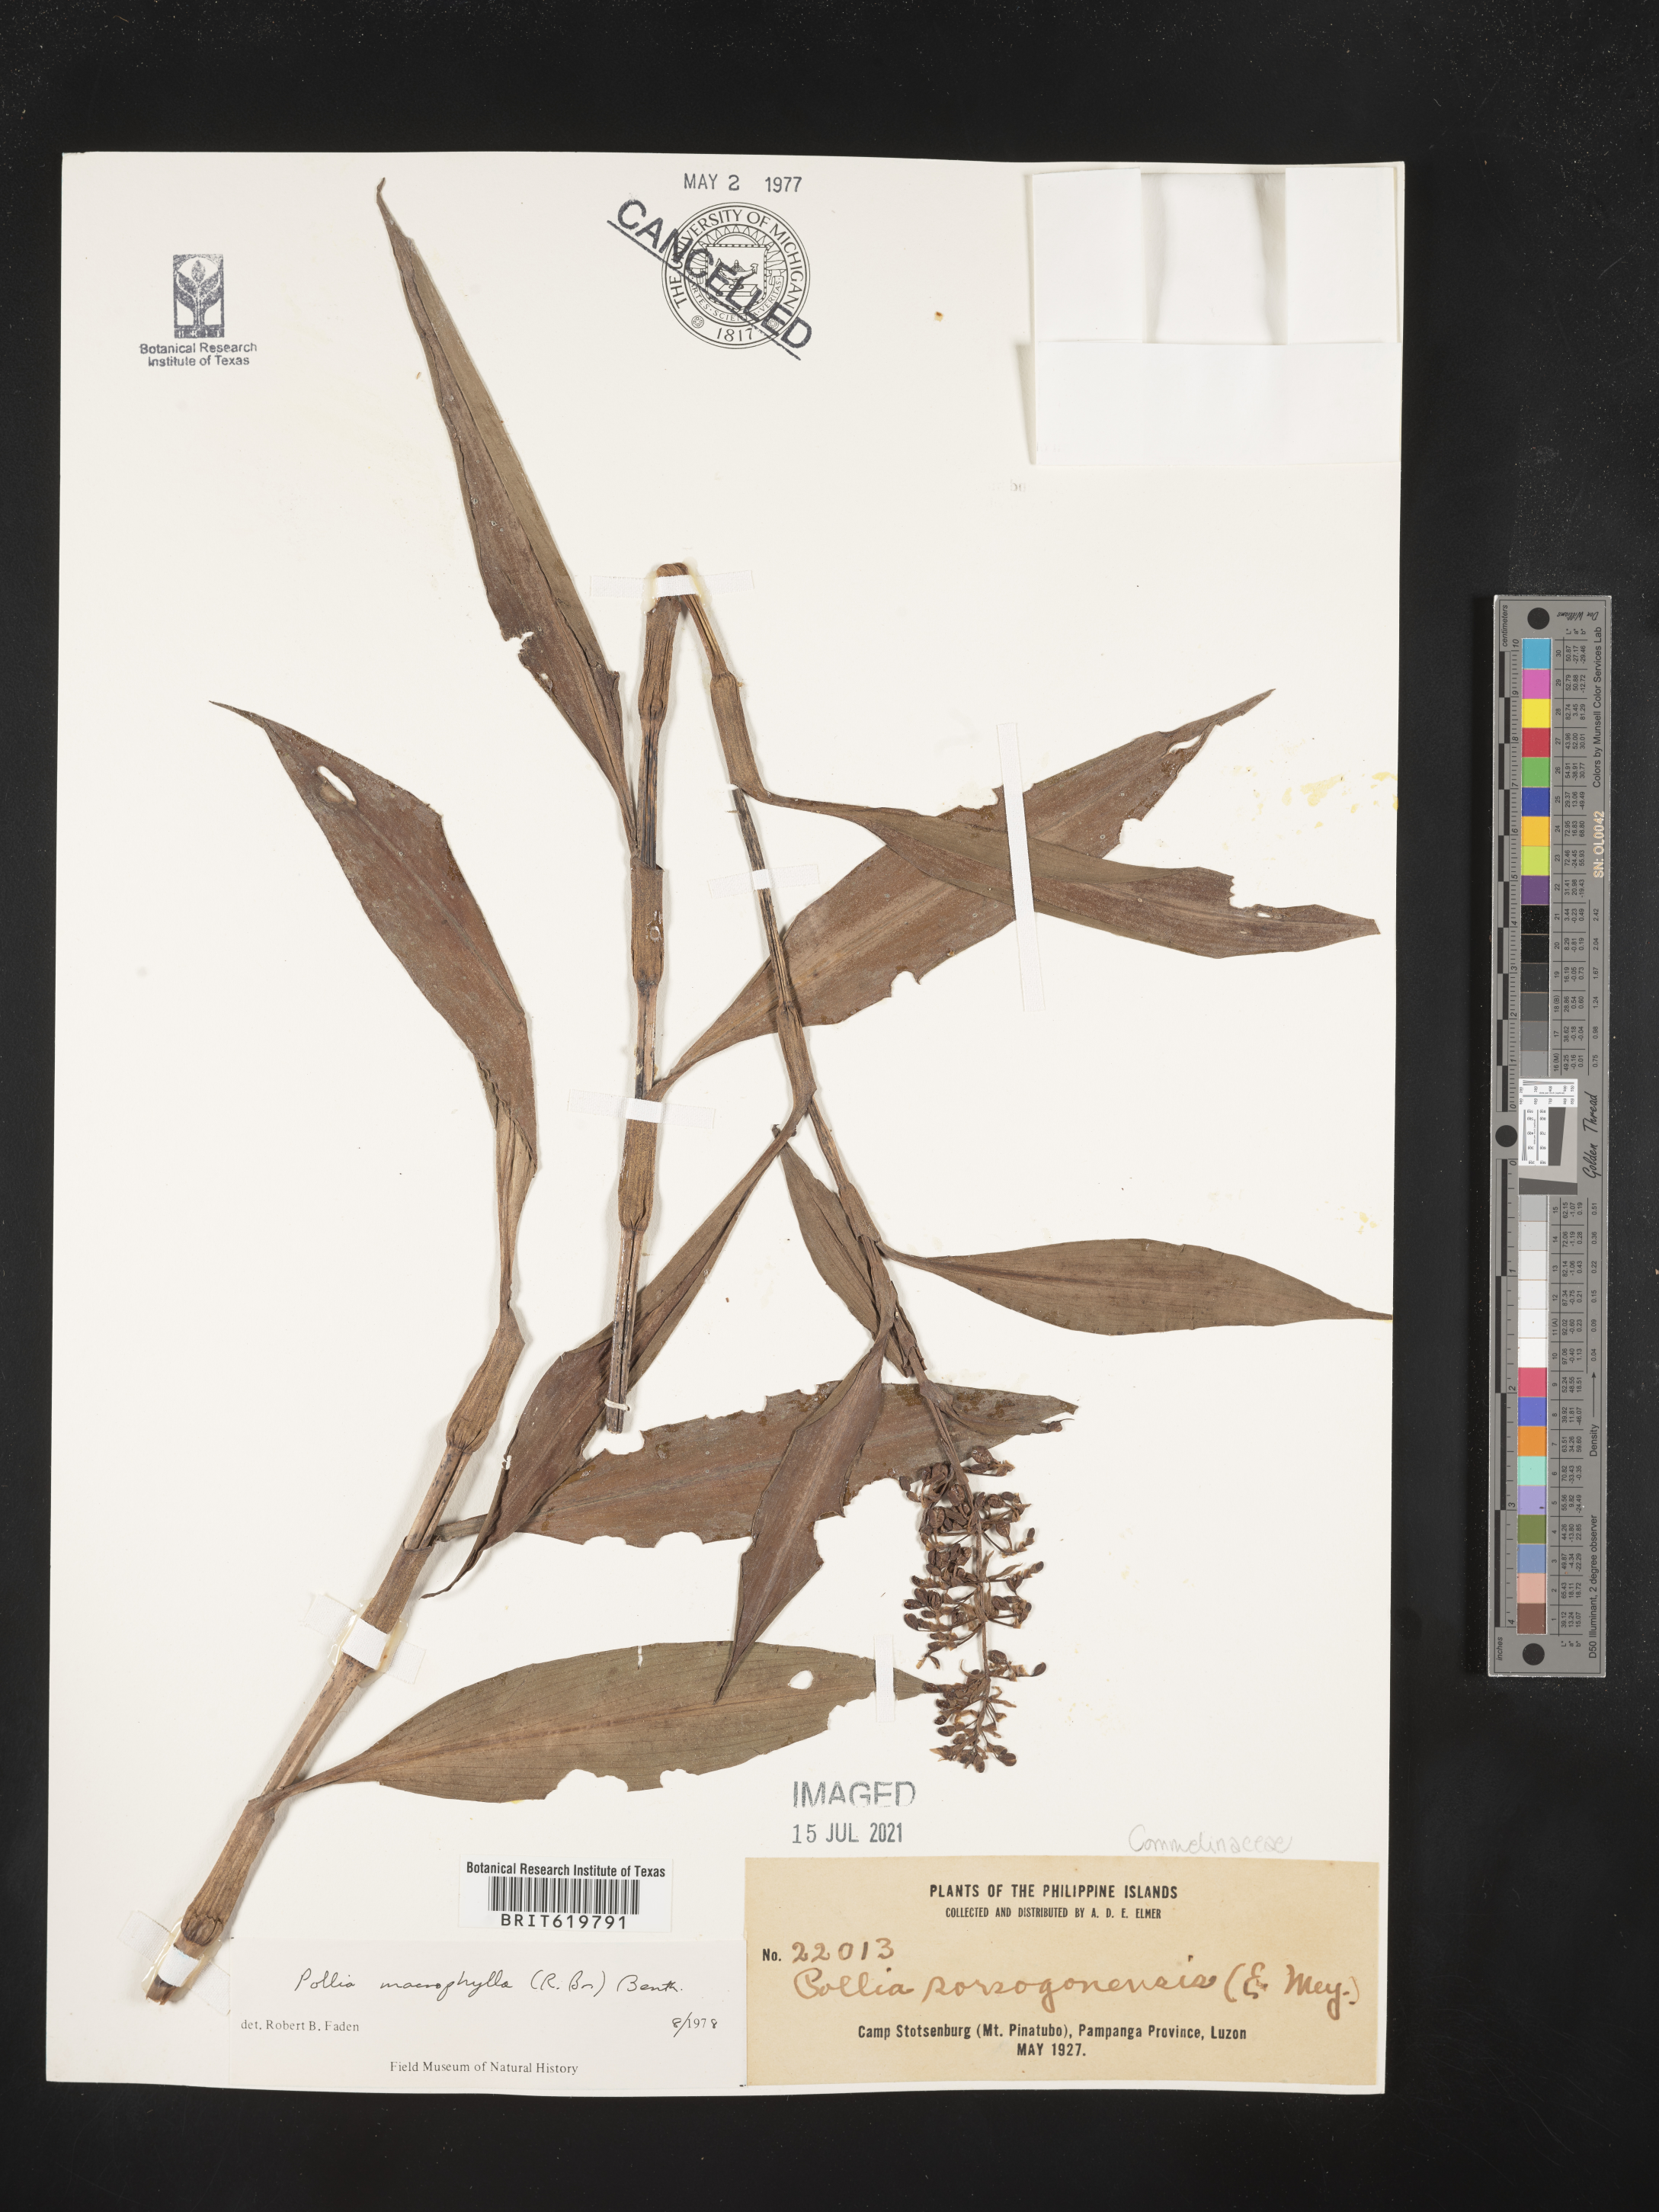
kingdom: Plantae
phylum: Tracheophyta
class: Liliopsida
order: Commelinales
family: Commelinaceae
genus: Pollia
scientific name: Pollia macrophylla
